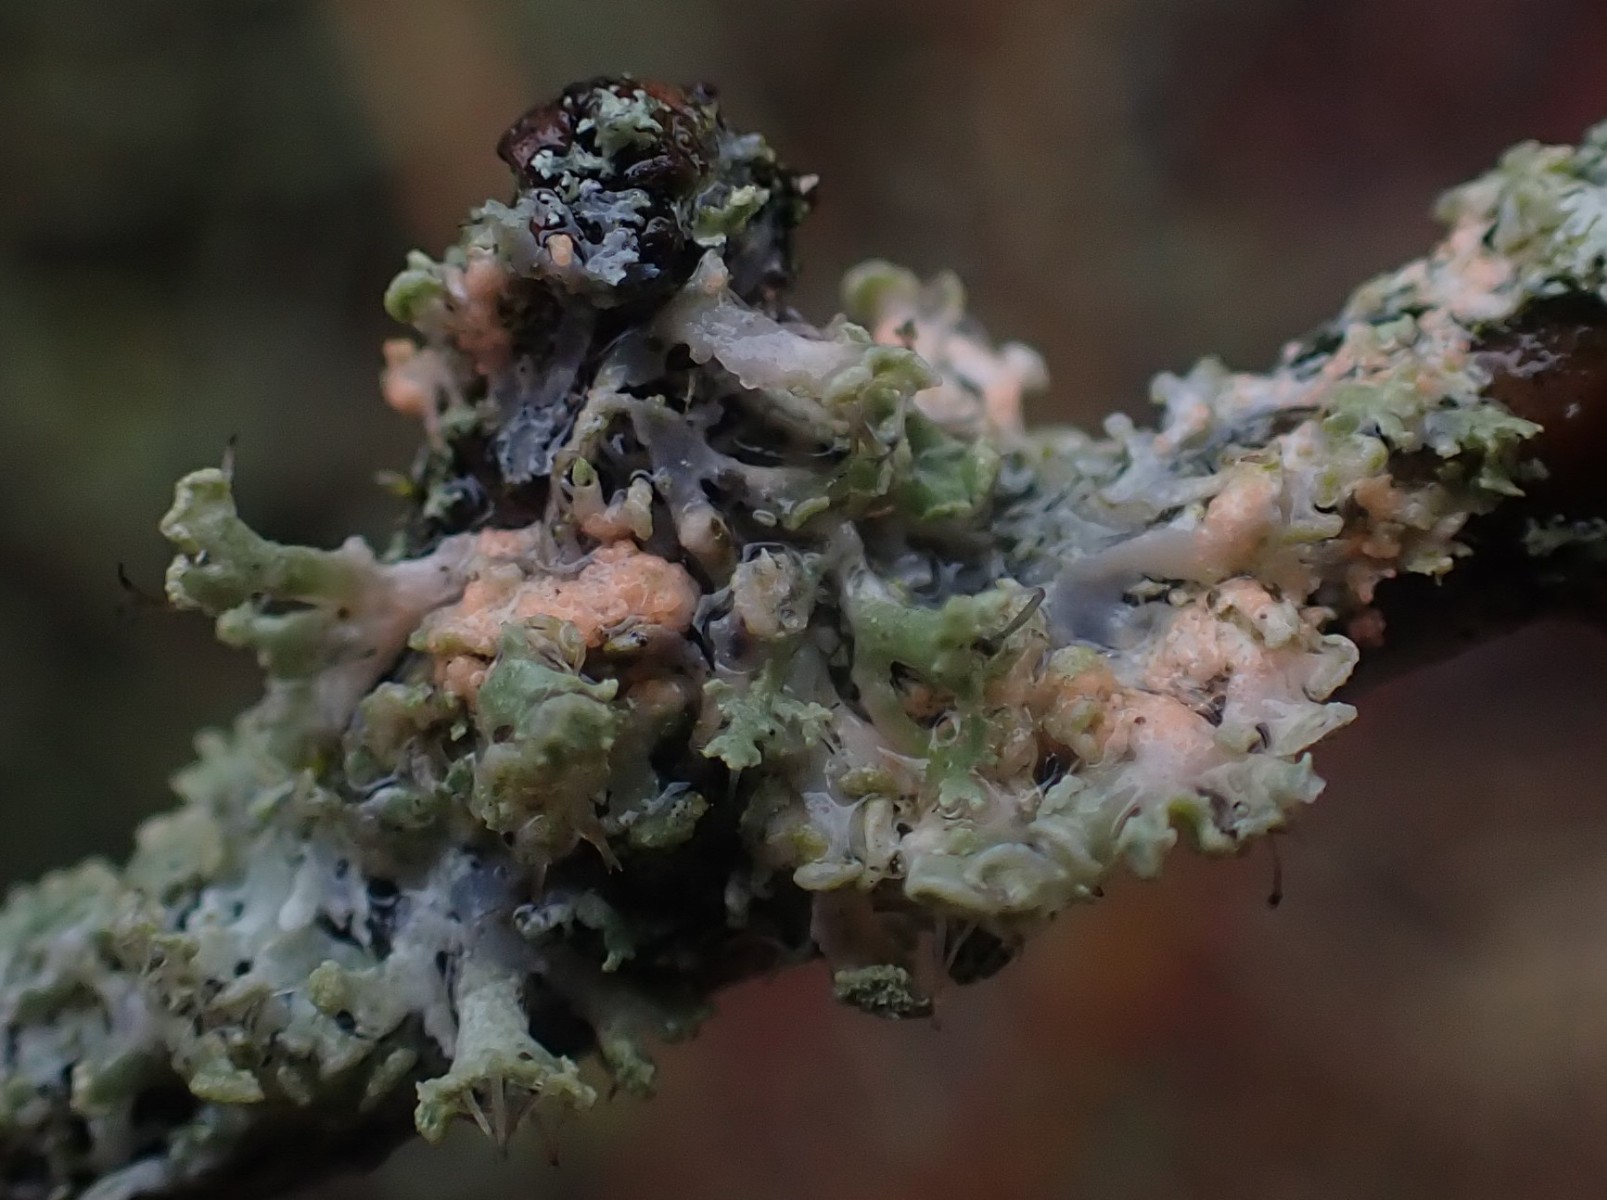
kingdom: Fungi
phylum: Basidiomycota
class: Agaricomycetes
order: Corticiales
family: Corticiaceae
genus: Erythricium
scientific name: Erythricium aurantiacum
